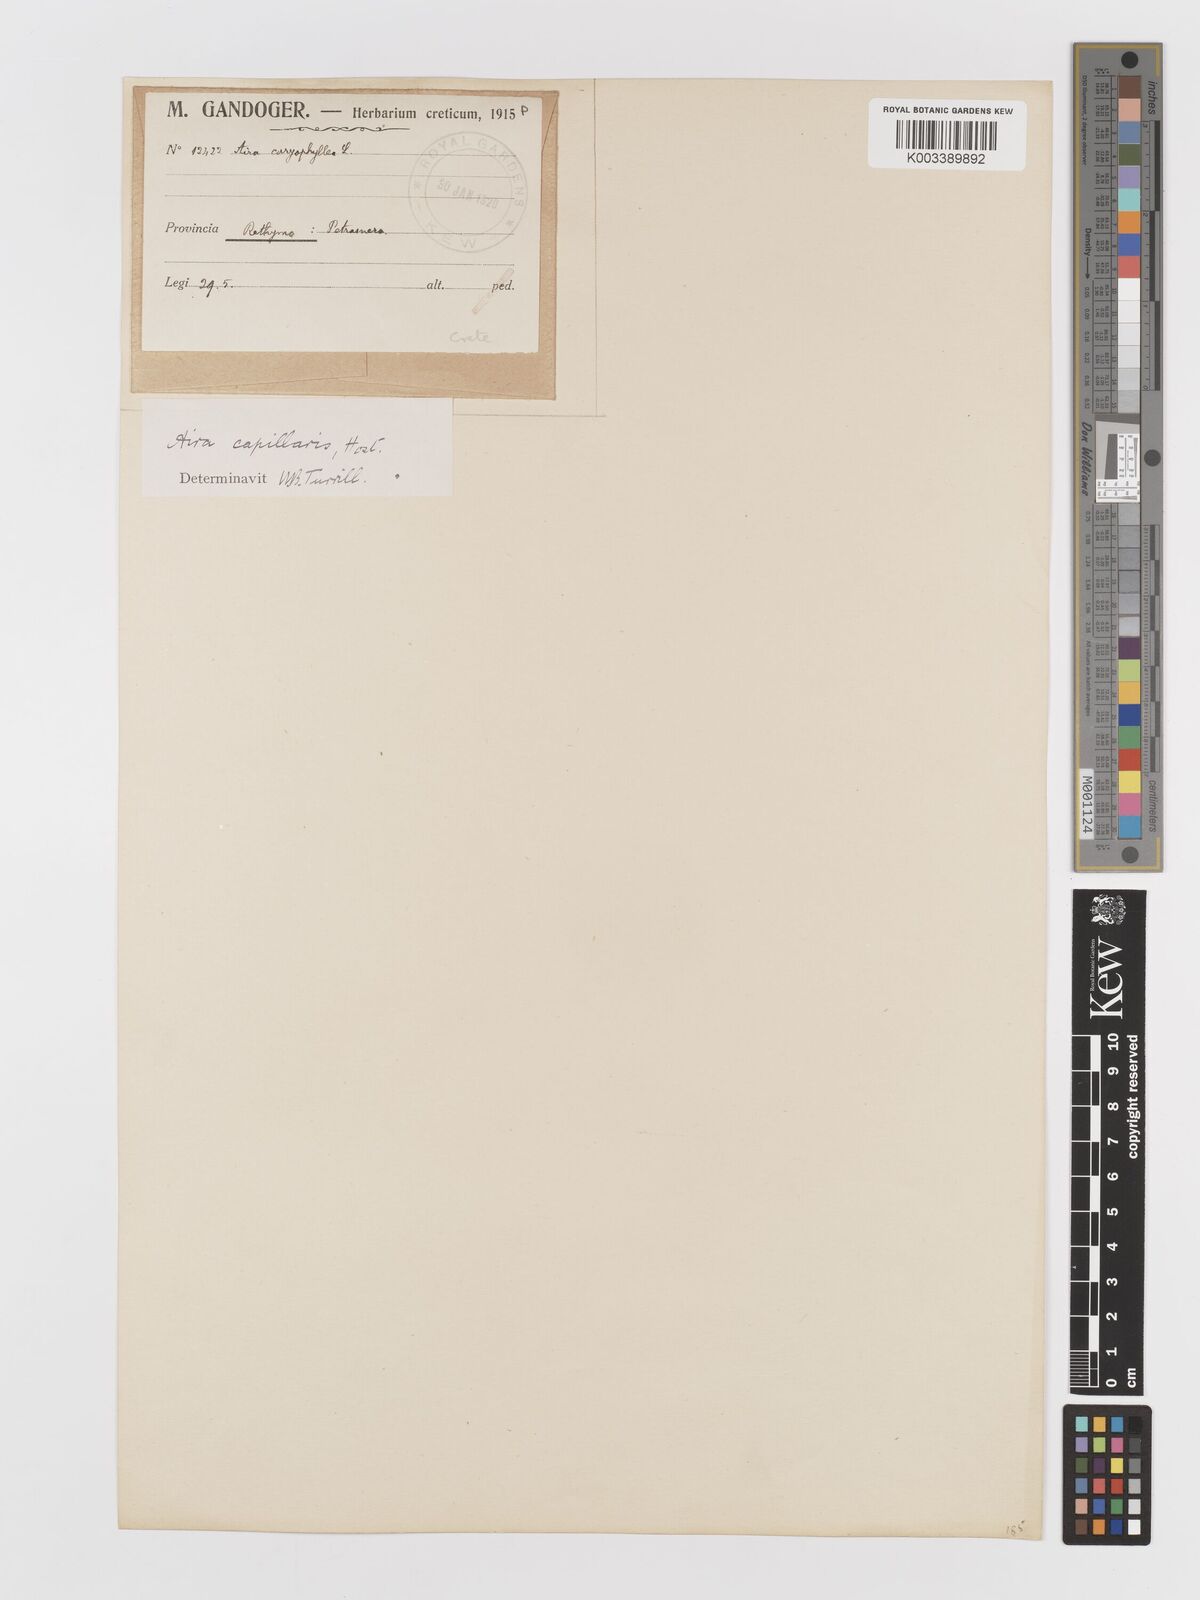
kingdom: Plantae
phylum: Tracheophyta
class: Liliopsida
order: Poales
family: Poaceae
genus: Aira
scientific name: Aira elegans
